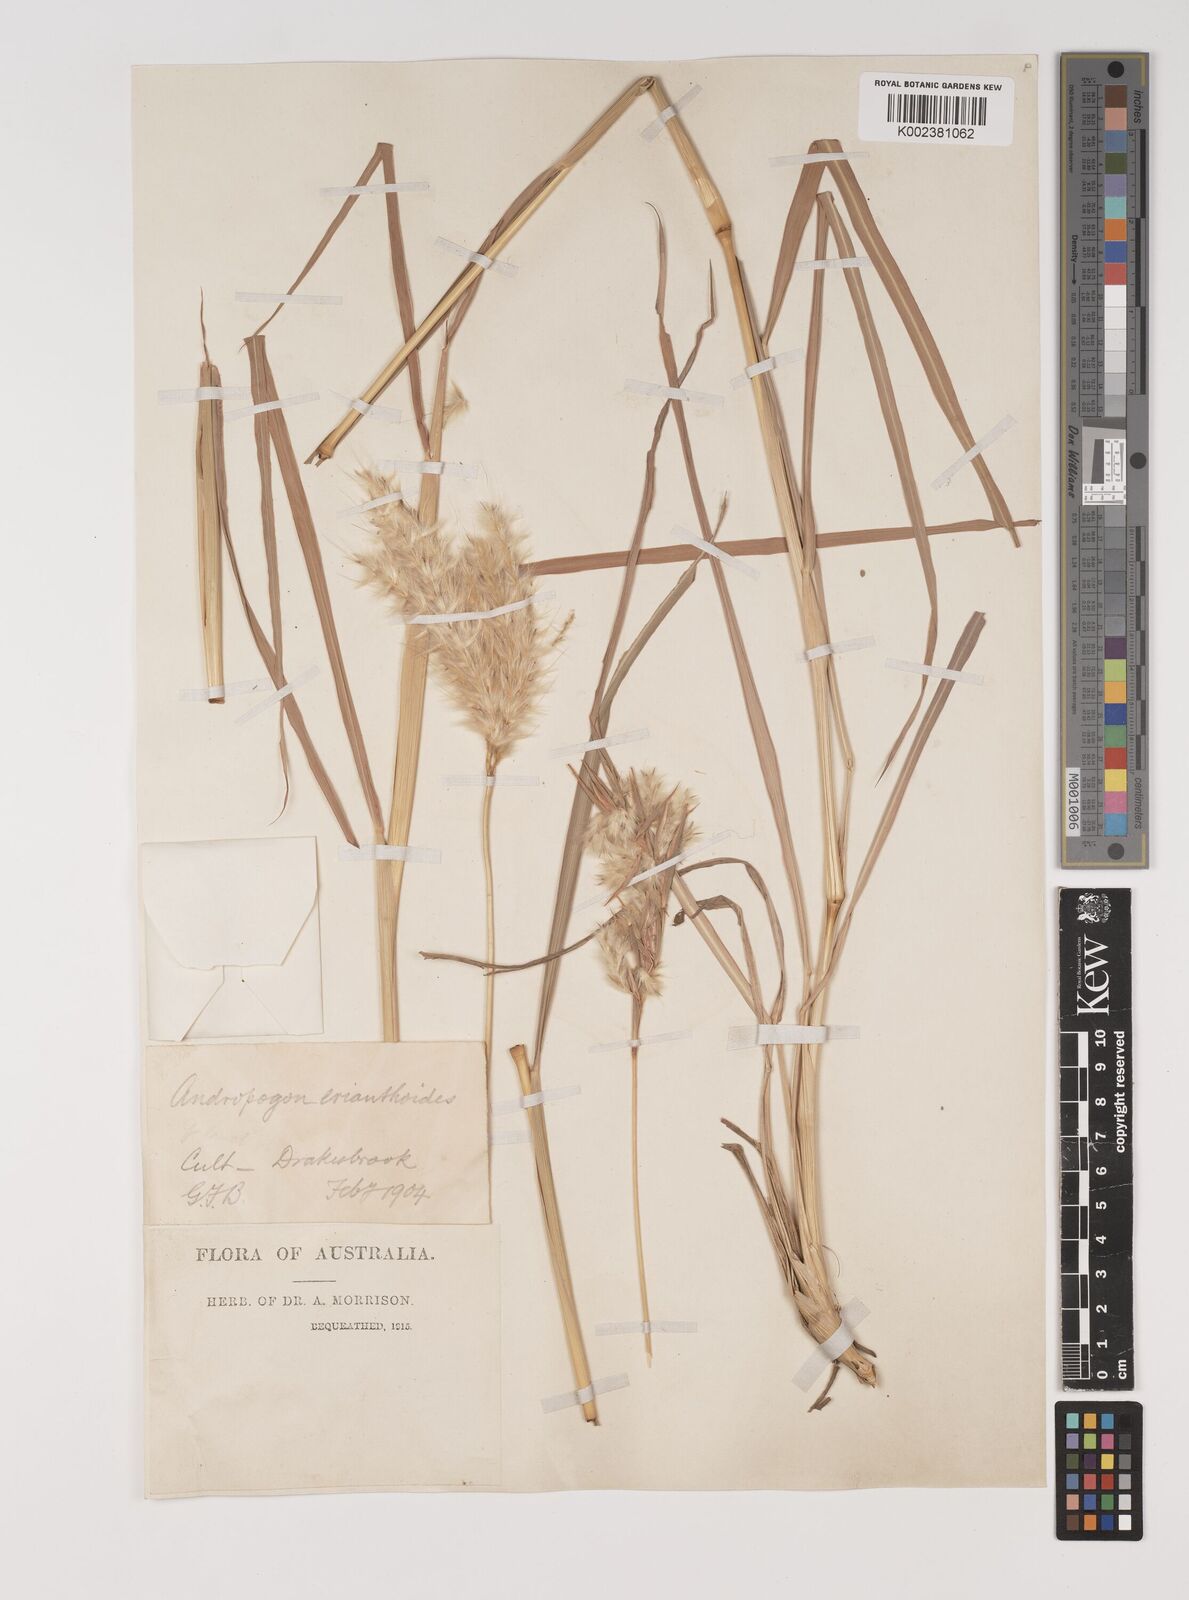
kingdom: Plantae
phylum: Tracheophyta
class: Liliopsida
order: Poales
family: Poaceae
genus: Bothriochloa
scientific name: Bothriochloa erianthoides
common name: Satin-top grass
